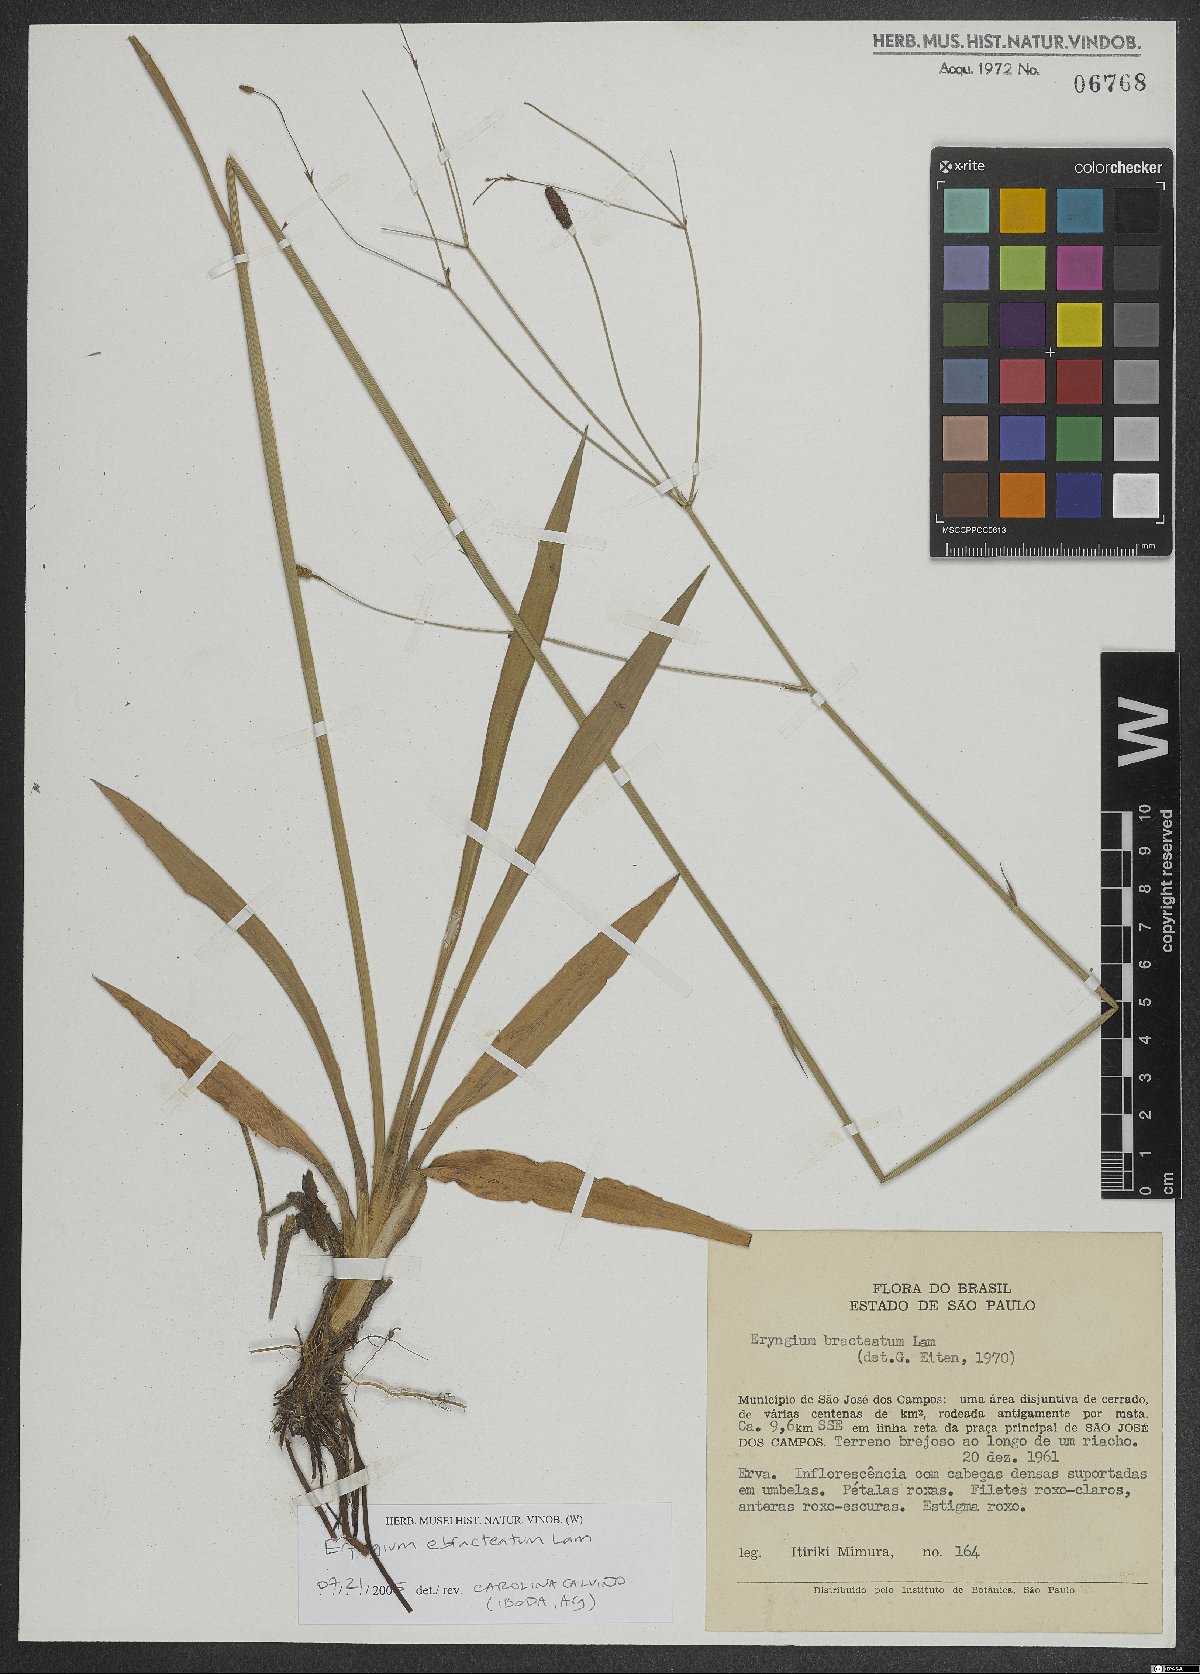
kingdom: Plantae
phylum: Tracheophyta
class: Magnoliopsida
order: Apiales
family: Apiaceae
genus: Eryngium
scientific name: Eryngium ebracteatum
